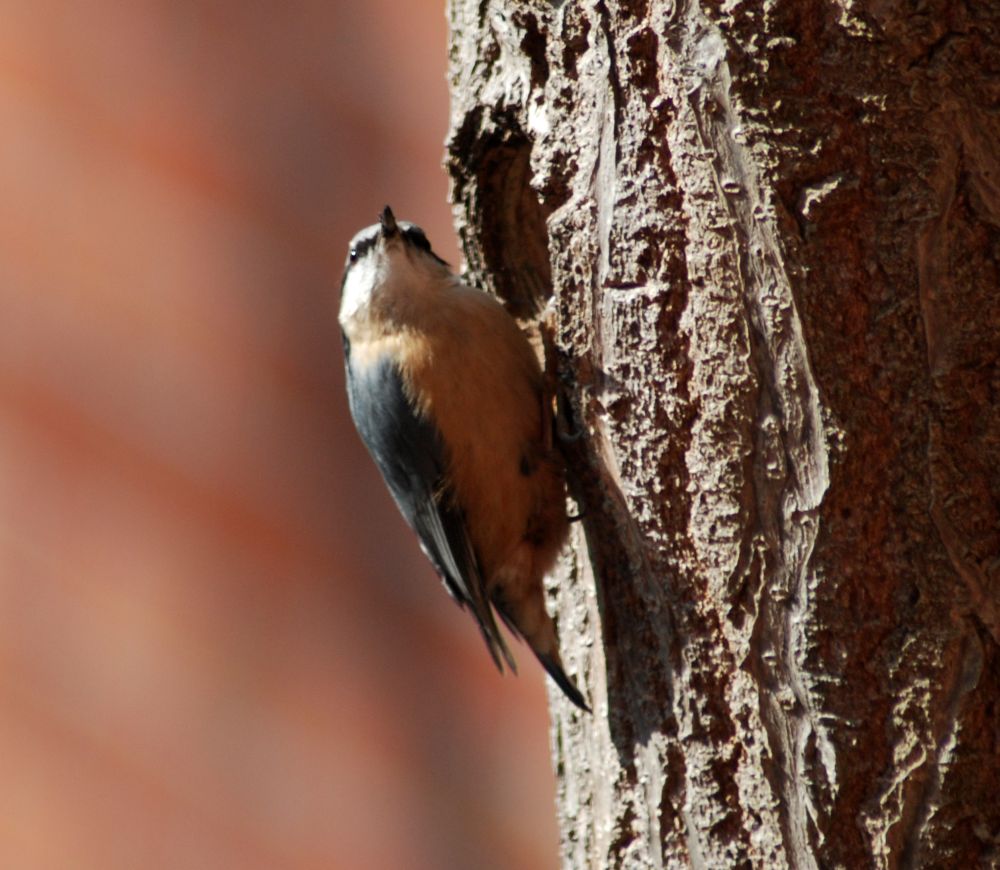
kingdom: Animalia
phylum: Chordata
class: Aves
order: Passeriformes
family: Sittidae
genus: Sitta
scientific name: Sitta europaea
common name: Eurasian nuthatch
